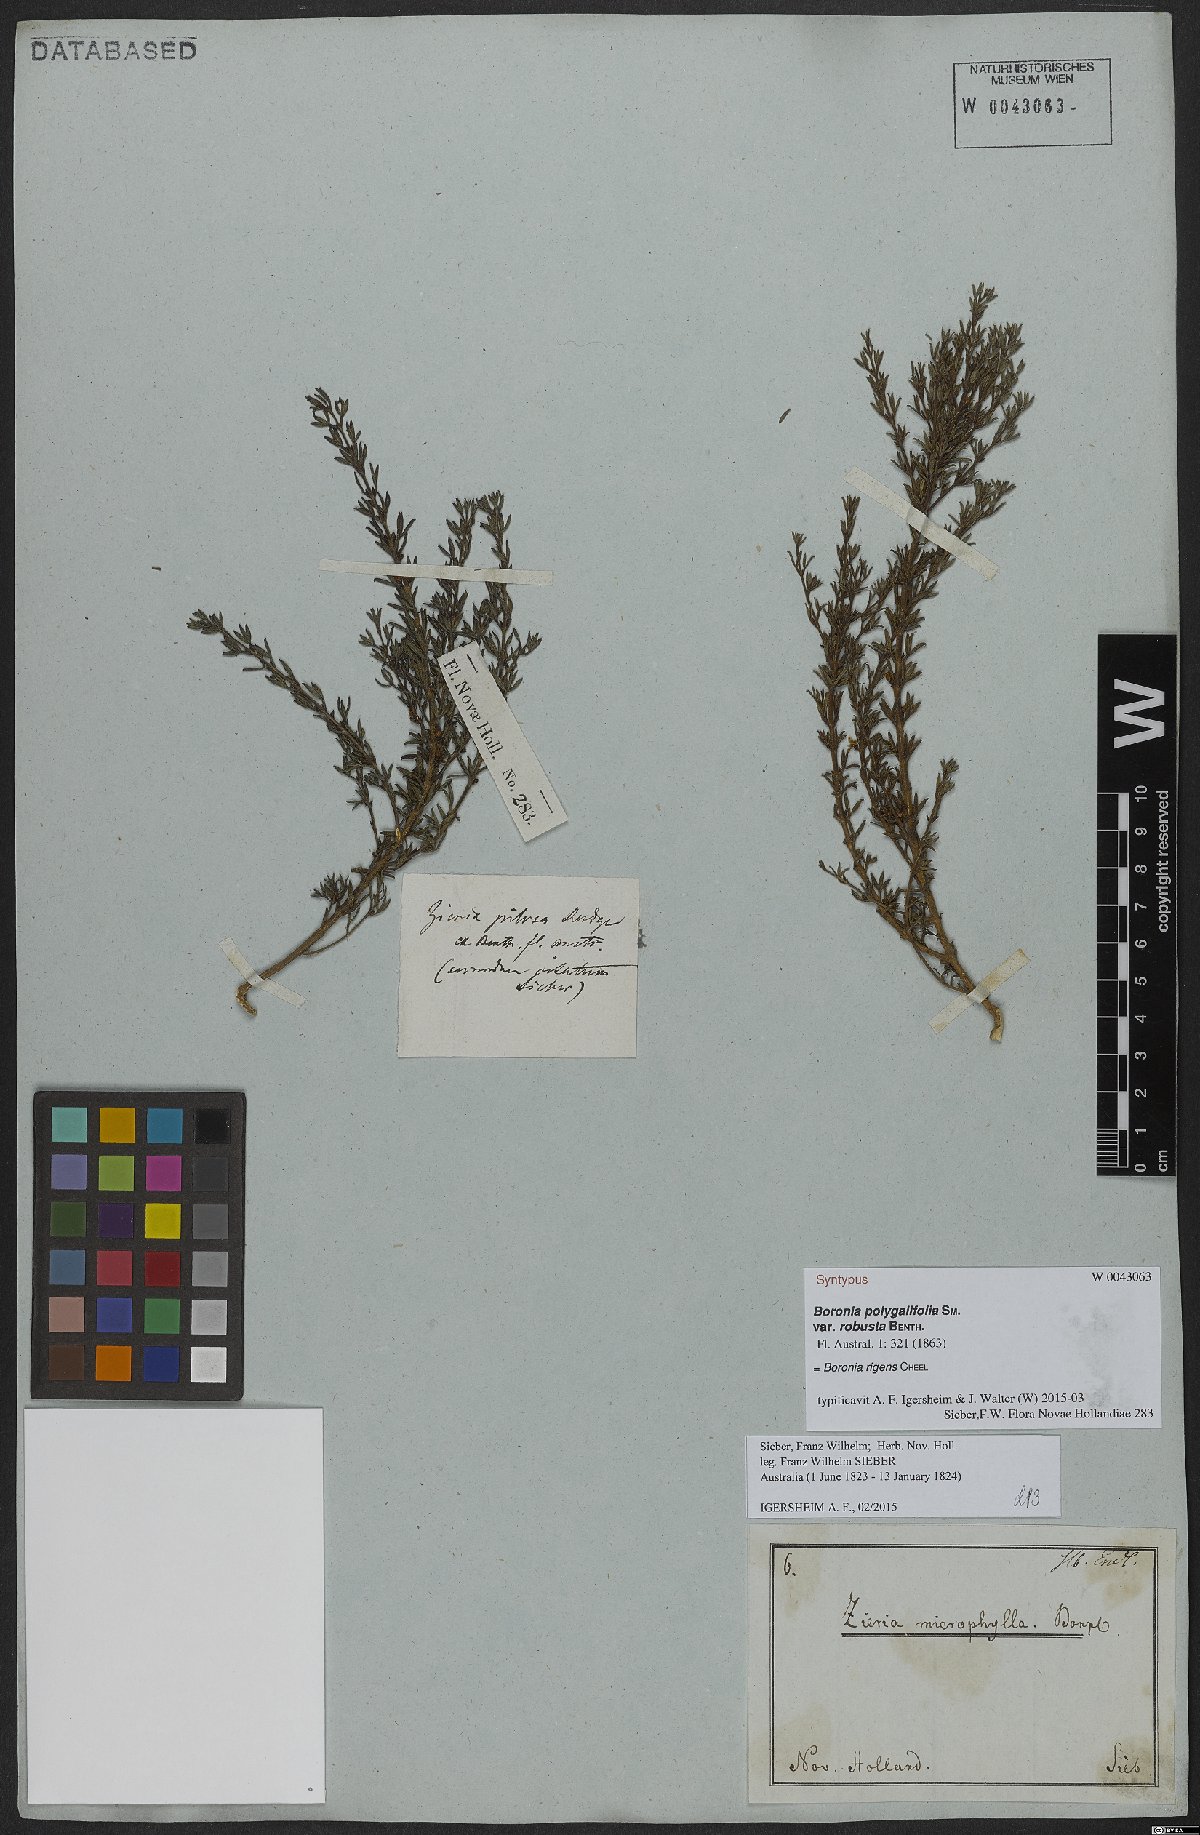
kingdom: Plantae
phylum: Tracheophyta
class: Magnoliopsida
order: Sapindales
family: Rutaceae
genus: Cyanothamnus
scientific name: Cyanothamnus rigens
